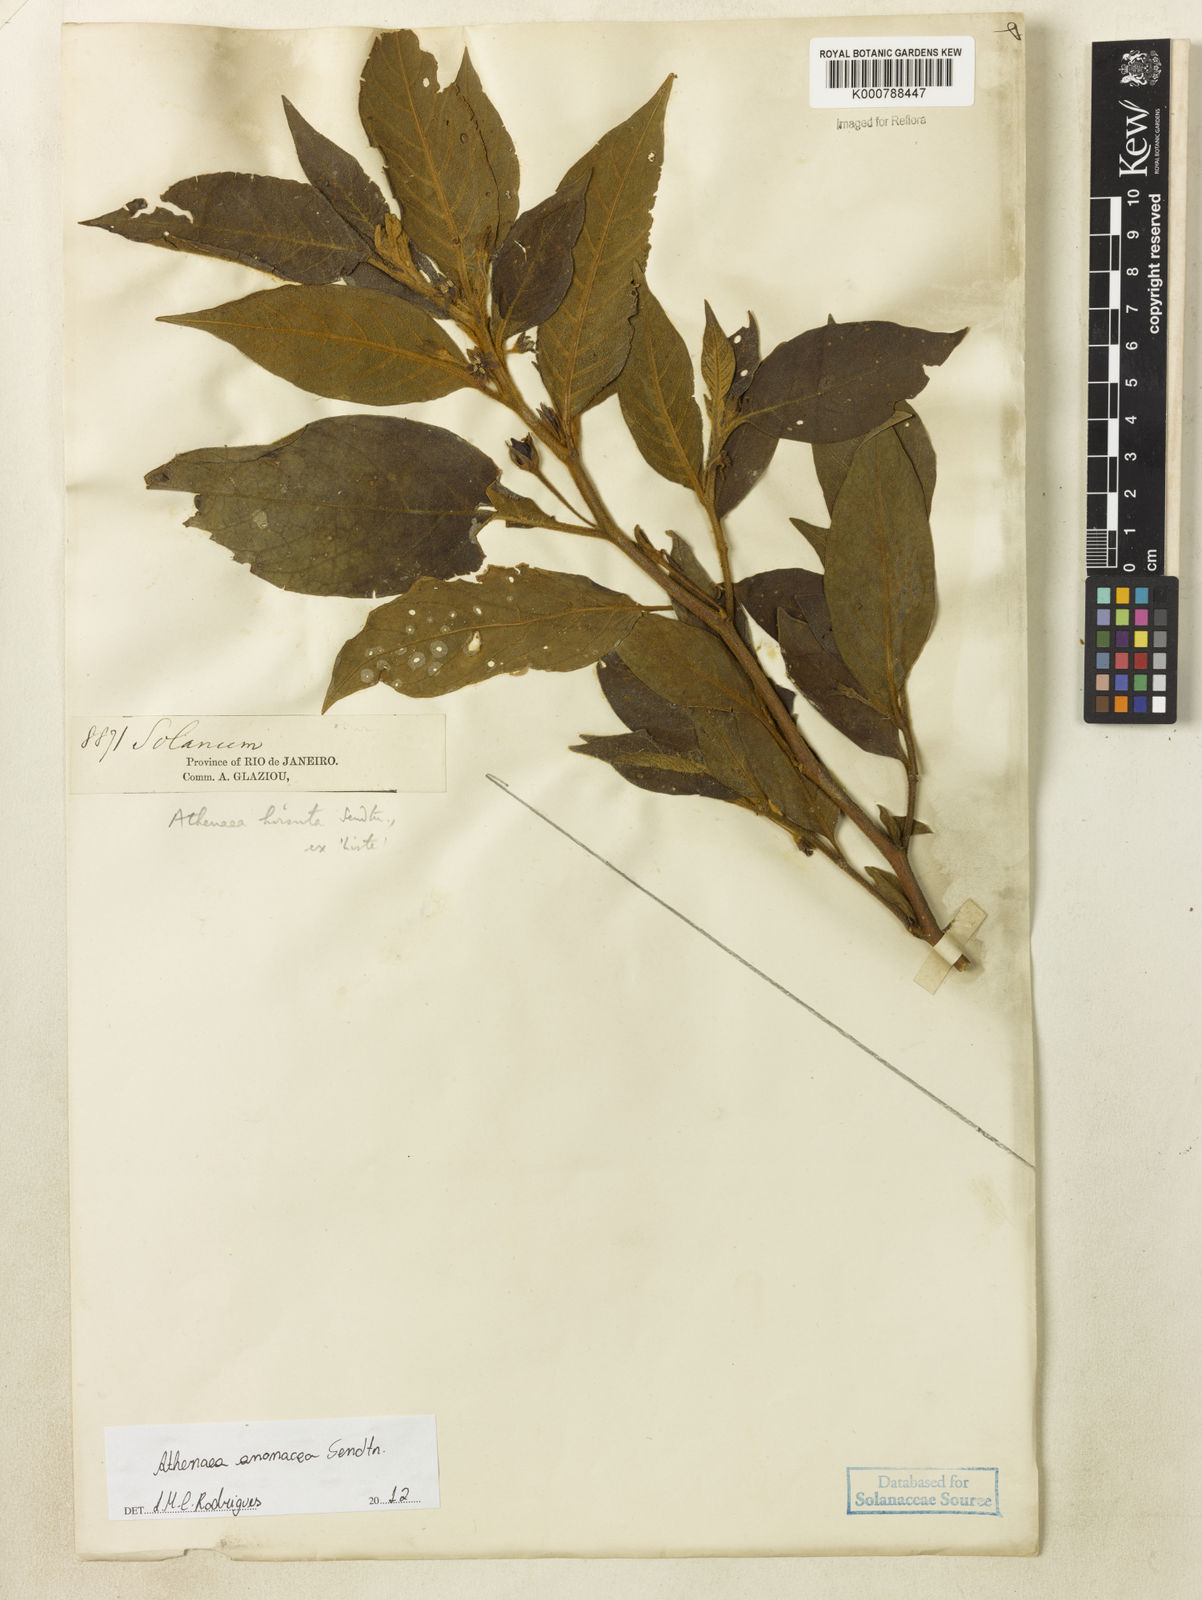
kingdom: Plantae
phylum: Tracheophyta
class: Magnoliopsida
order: Solanales
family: Solanaceae
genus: Athenaea
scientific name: Athenaea anonacea
